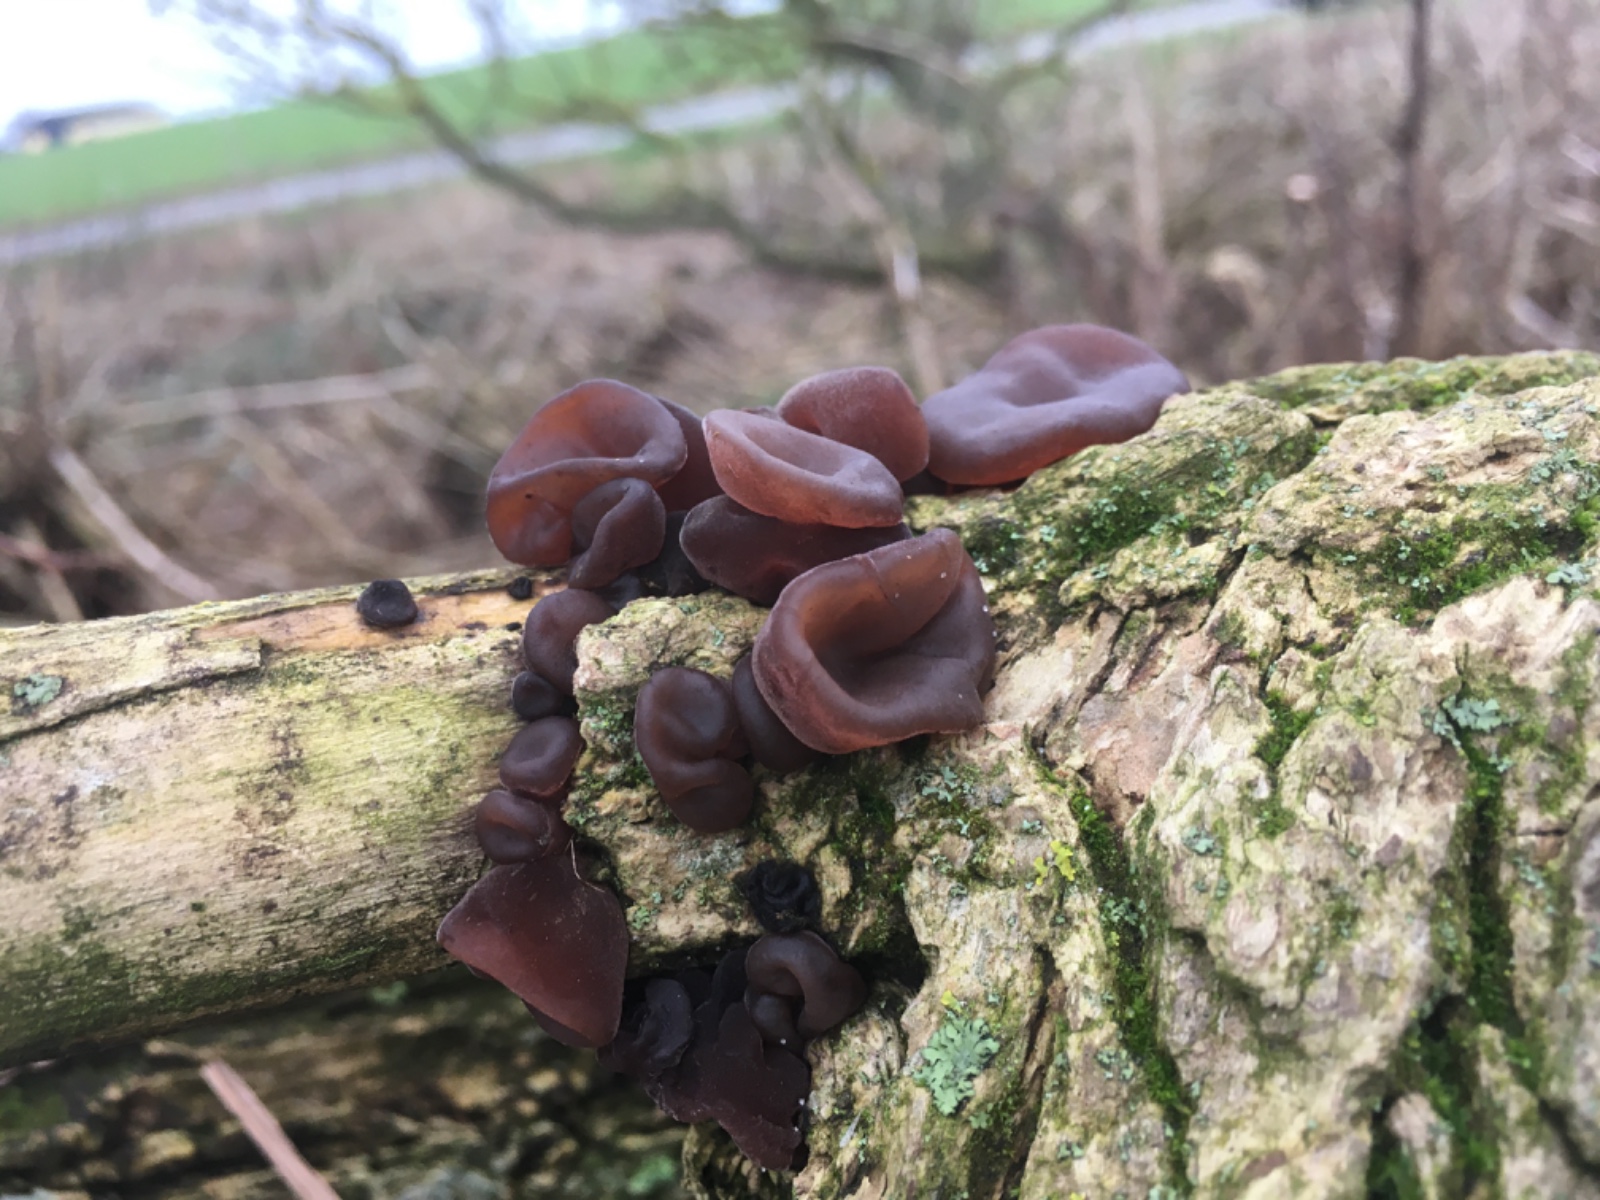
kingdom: Fungi
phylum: Basidiomycota
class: Agaricomycetes
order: Auriculariales
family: Auriculariaceae
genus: Auricularia
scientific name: Auricularia auricula-judae
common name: almindelig judasøre
